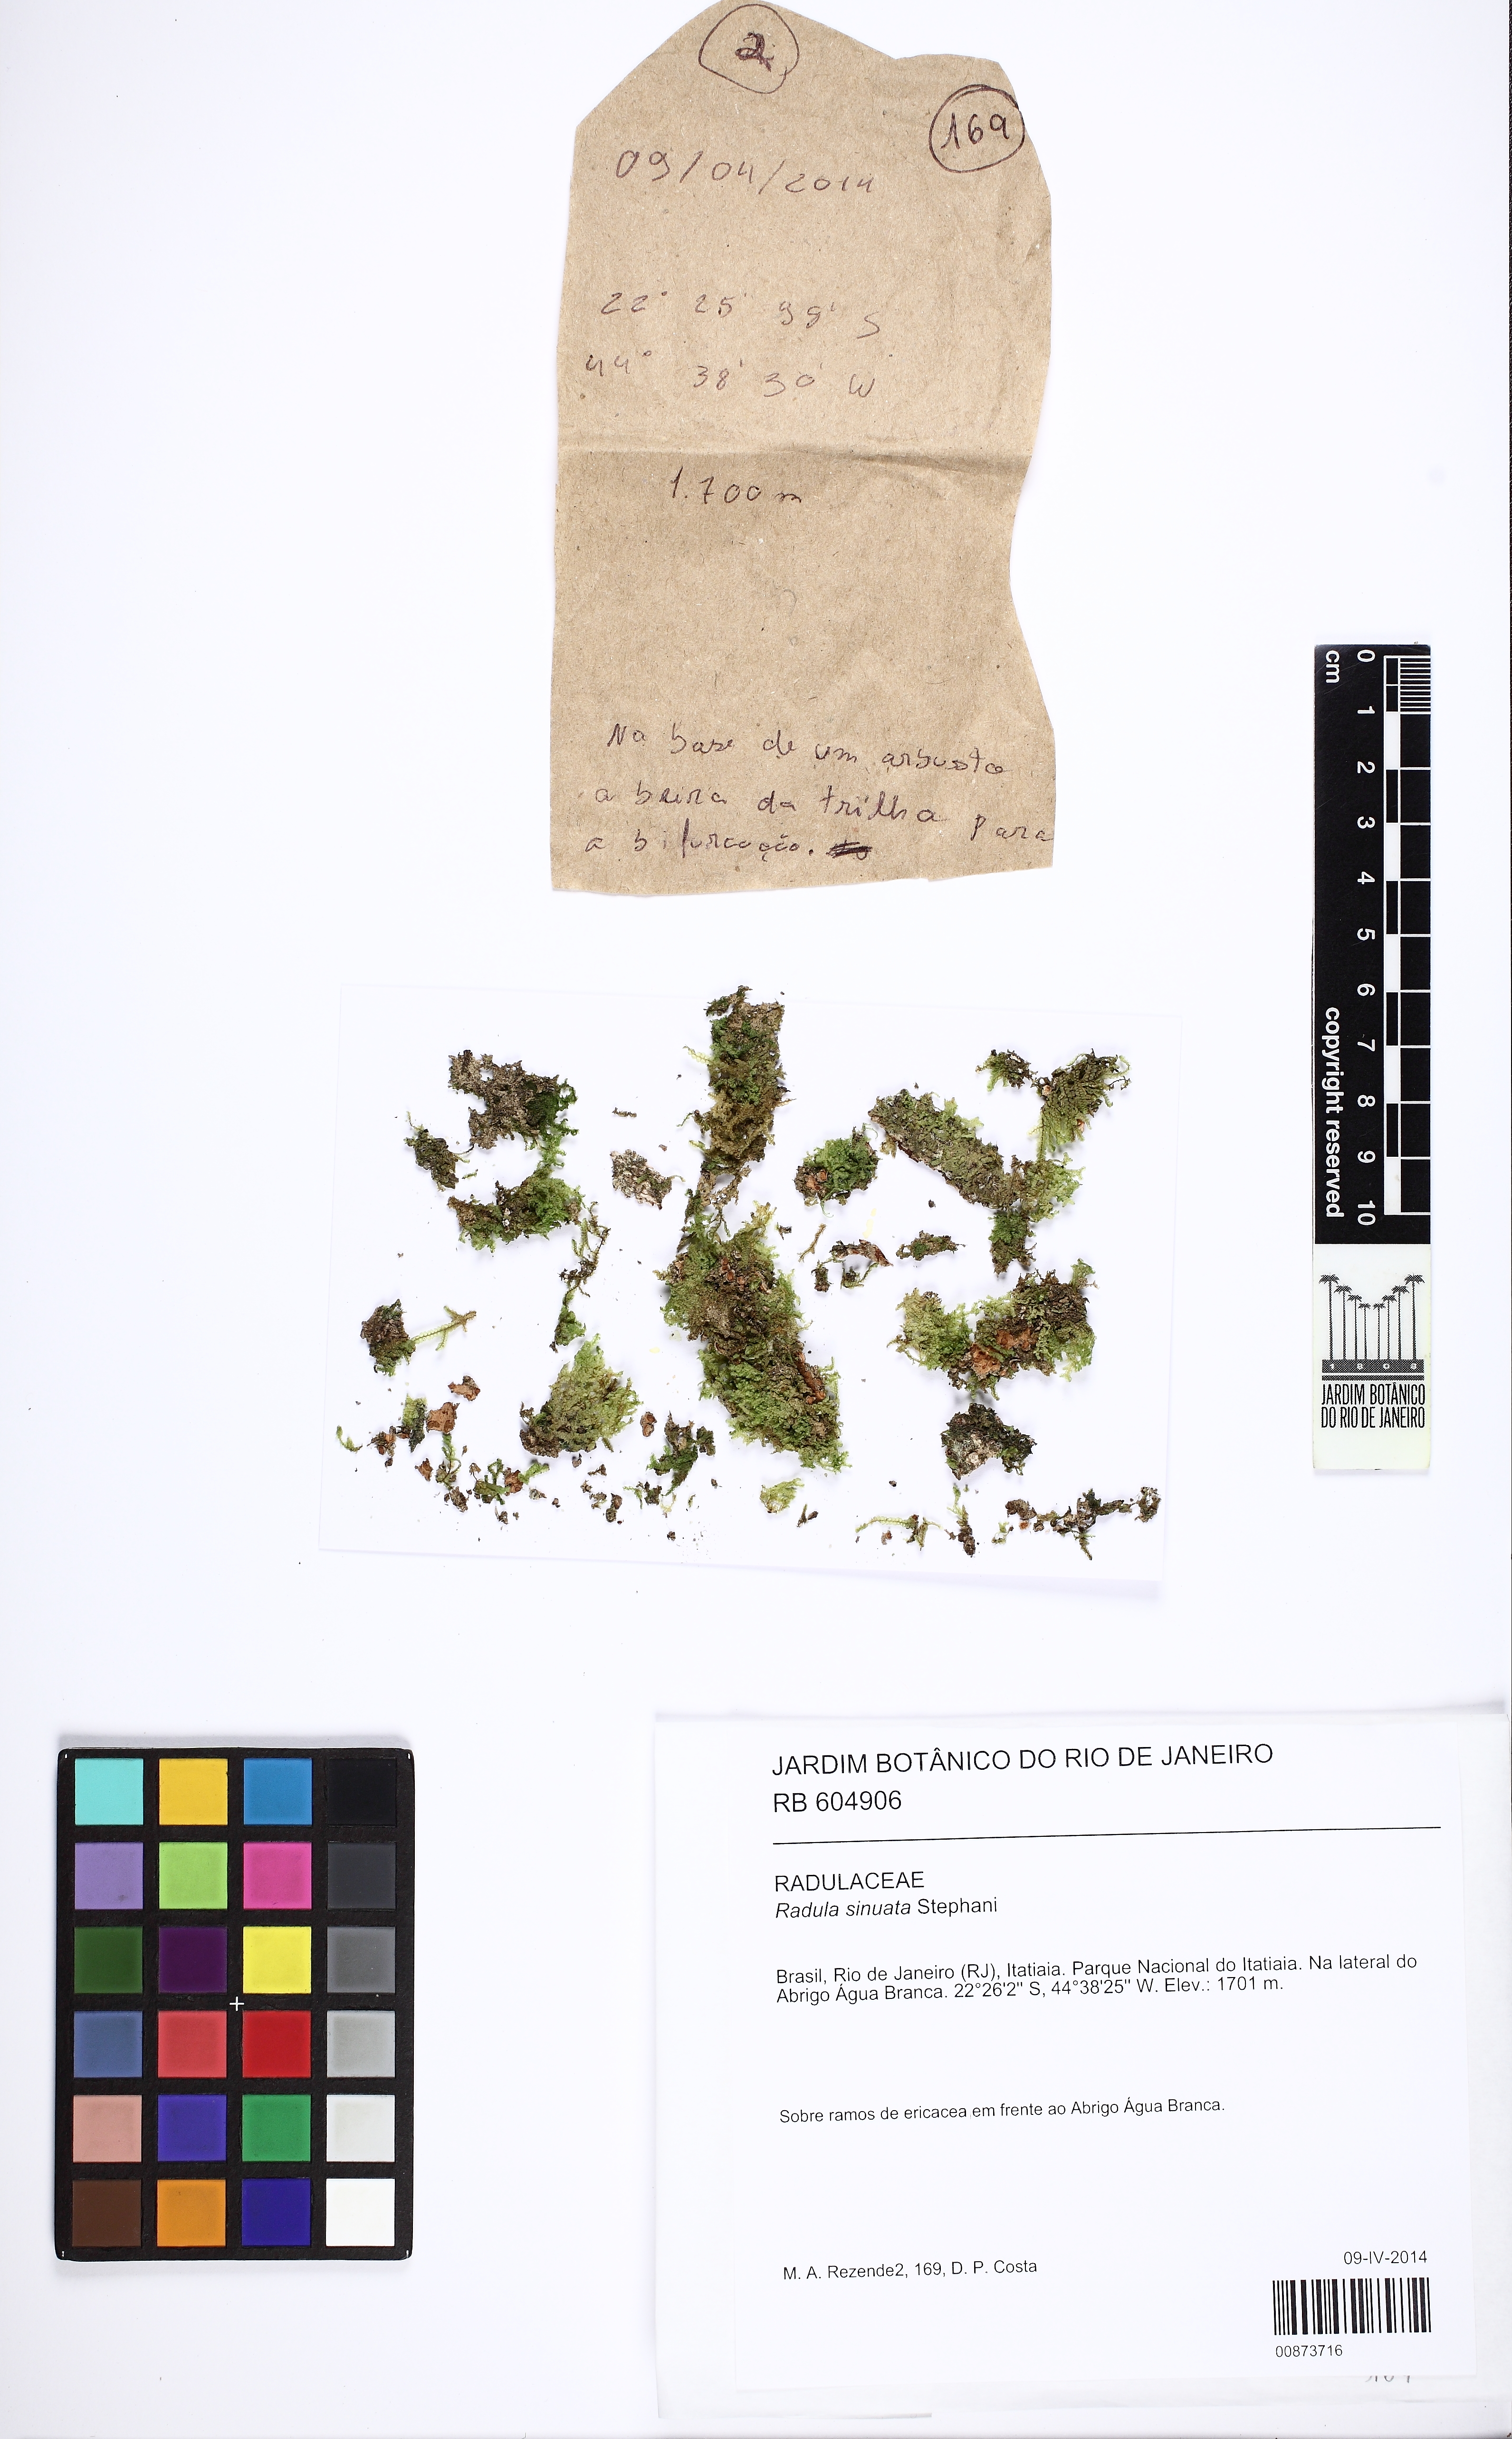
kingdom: Plantae
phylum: Marchantiophyta
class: Jungermanniopsida
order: Porellales
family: Radulaceae
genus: Radula
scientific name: Radula sinuata
